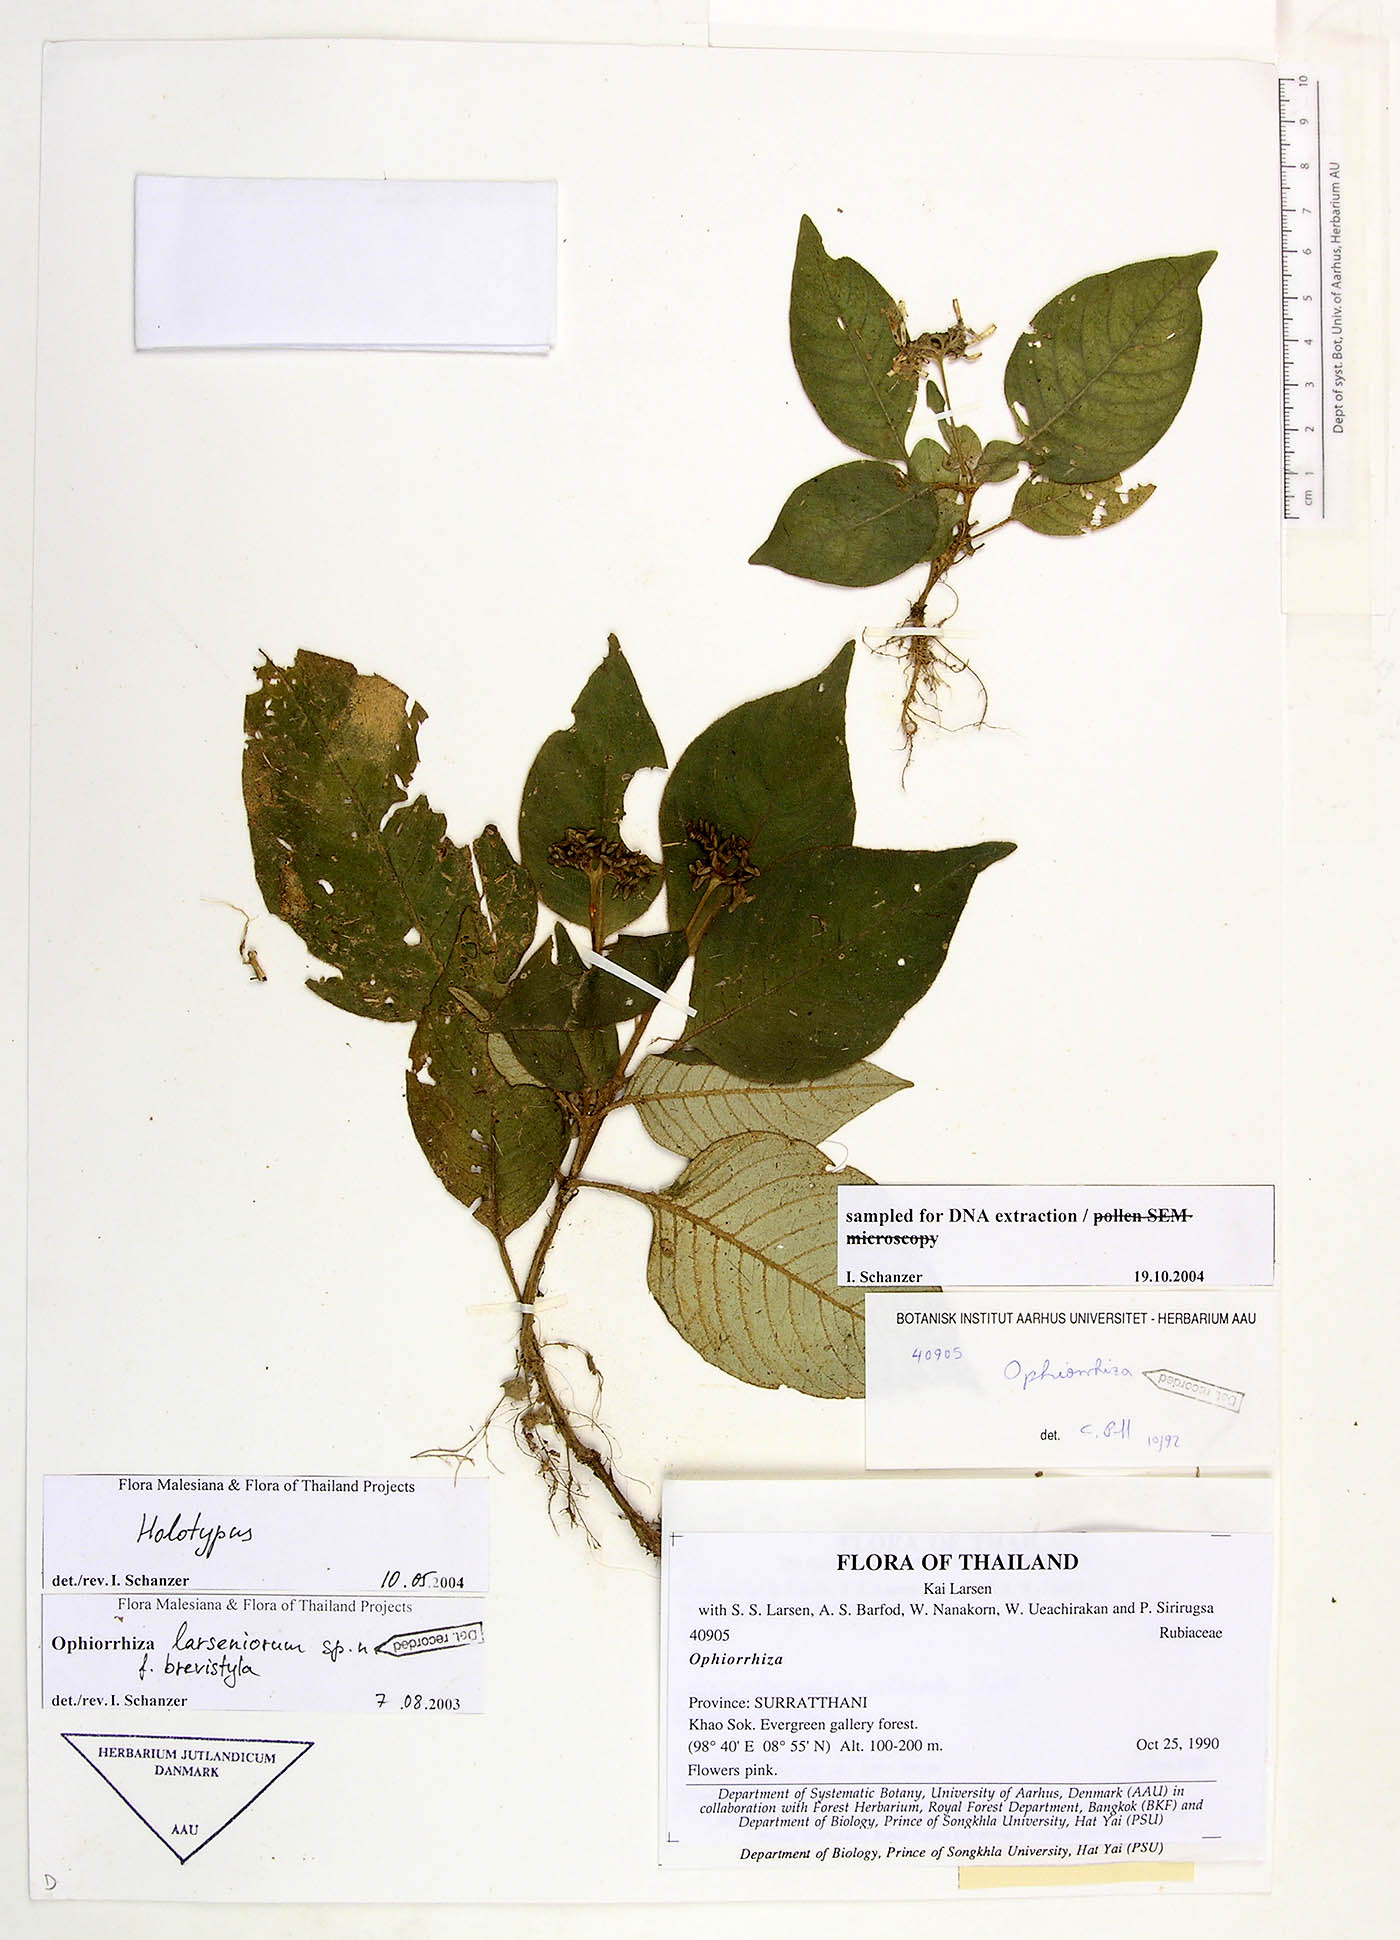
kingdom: Plantae
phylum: Tracheophyta
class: Magnoliopsida
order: Gentianales
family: Rubiaceae
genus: Ophiorrhiza
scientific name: Ophiorrhiza larseniorum
